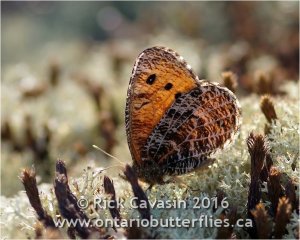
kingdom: Animalia
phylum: Arthropoda
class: Insecta
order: Lepidoptera
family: Nymphalidae
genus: Oeneis
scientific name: Oeneis chryxus
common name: Chryxus Arctic
